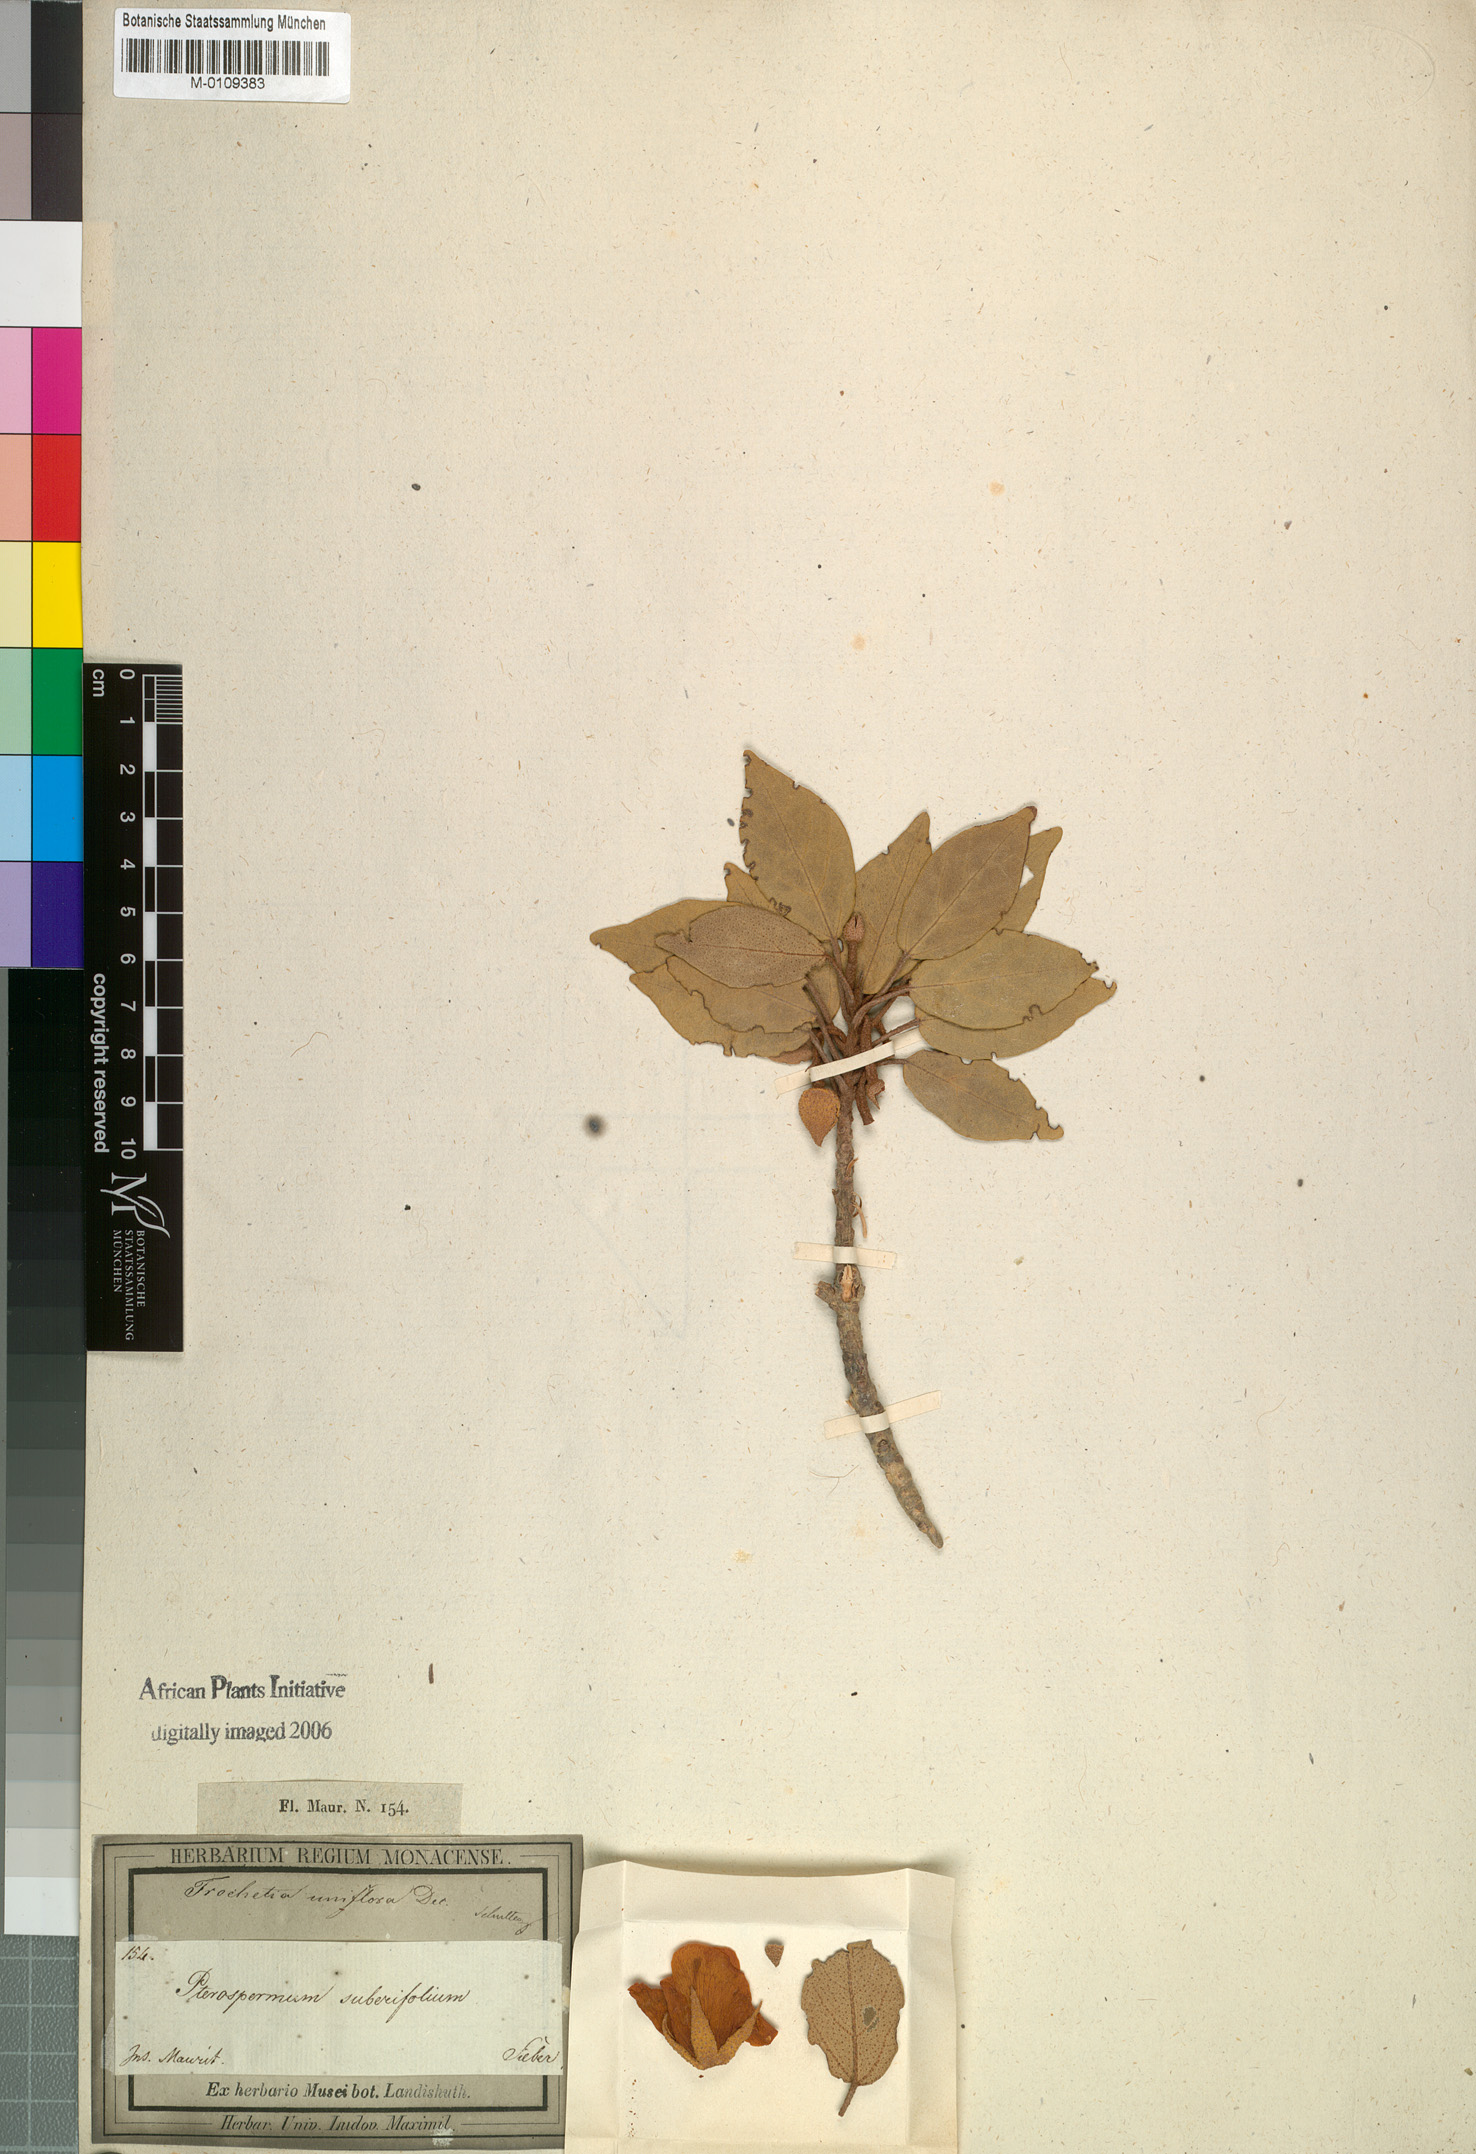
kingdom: Plantae
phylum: Tracheophyta
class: Magnoliopsida
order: Malvales
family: Malvaceae
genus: Ruizia
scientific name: Ruizia uniflora
